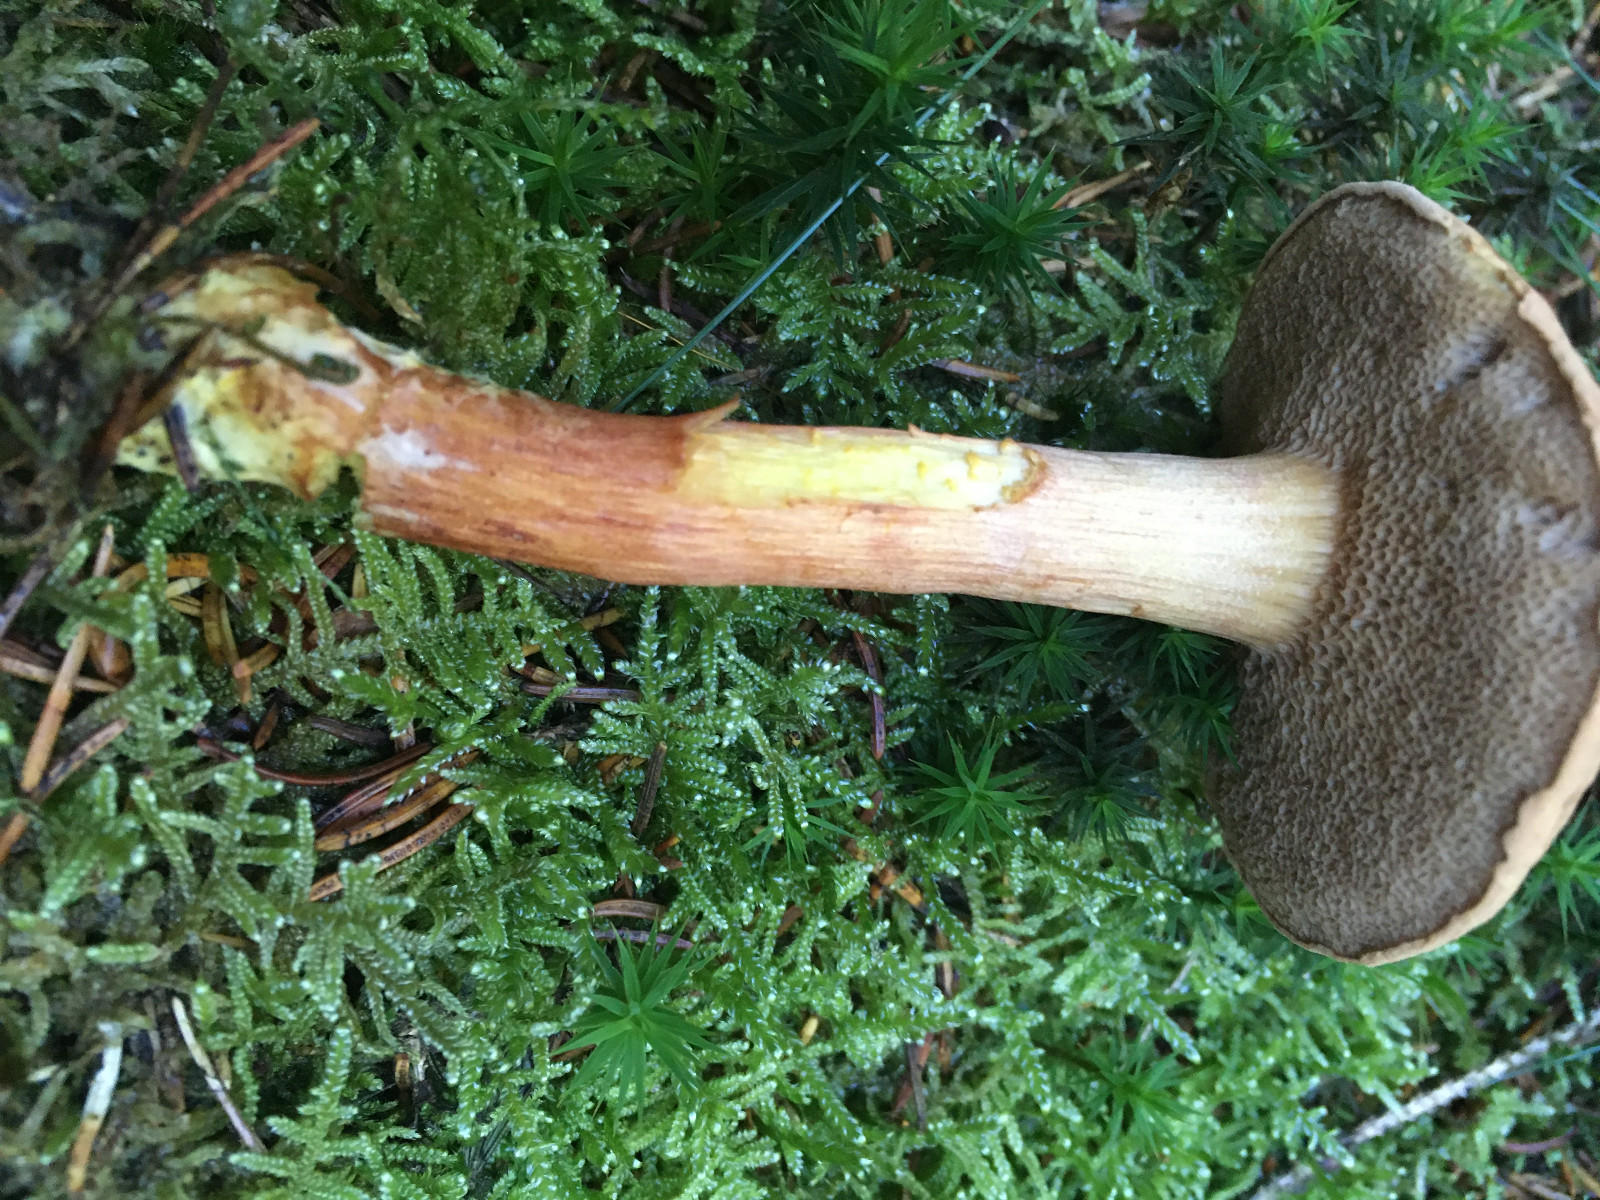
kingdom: Fungi
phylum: Basidiomycota
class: Agaricomycetes
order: Boletales
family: Boletaceae
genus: Chalciporus
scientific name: Chalciporus piperatus
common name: peberrørhat
